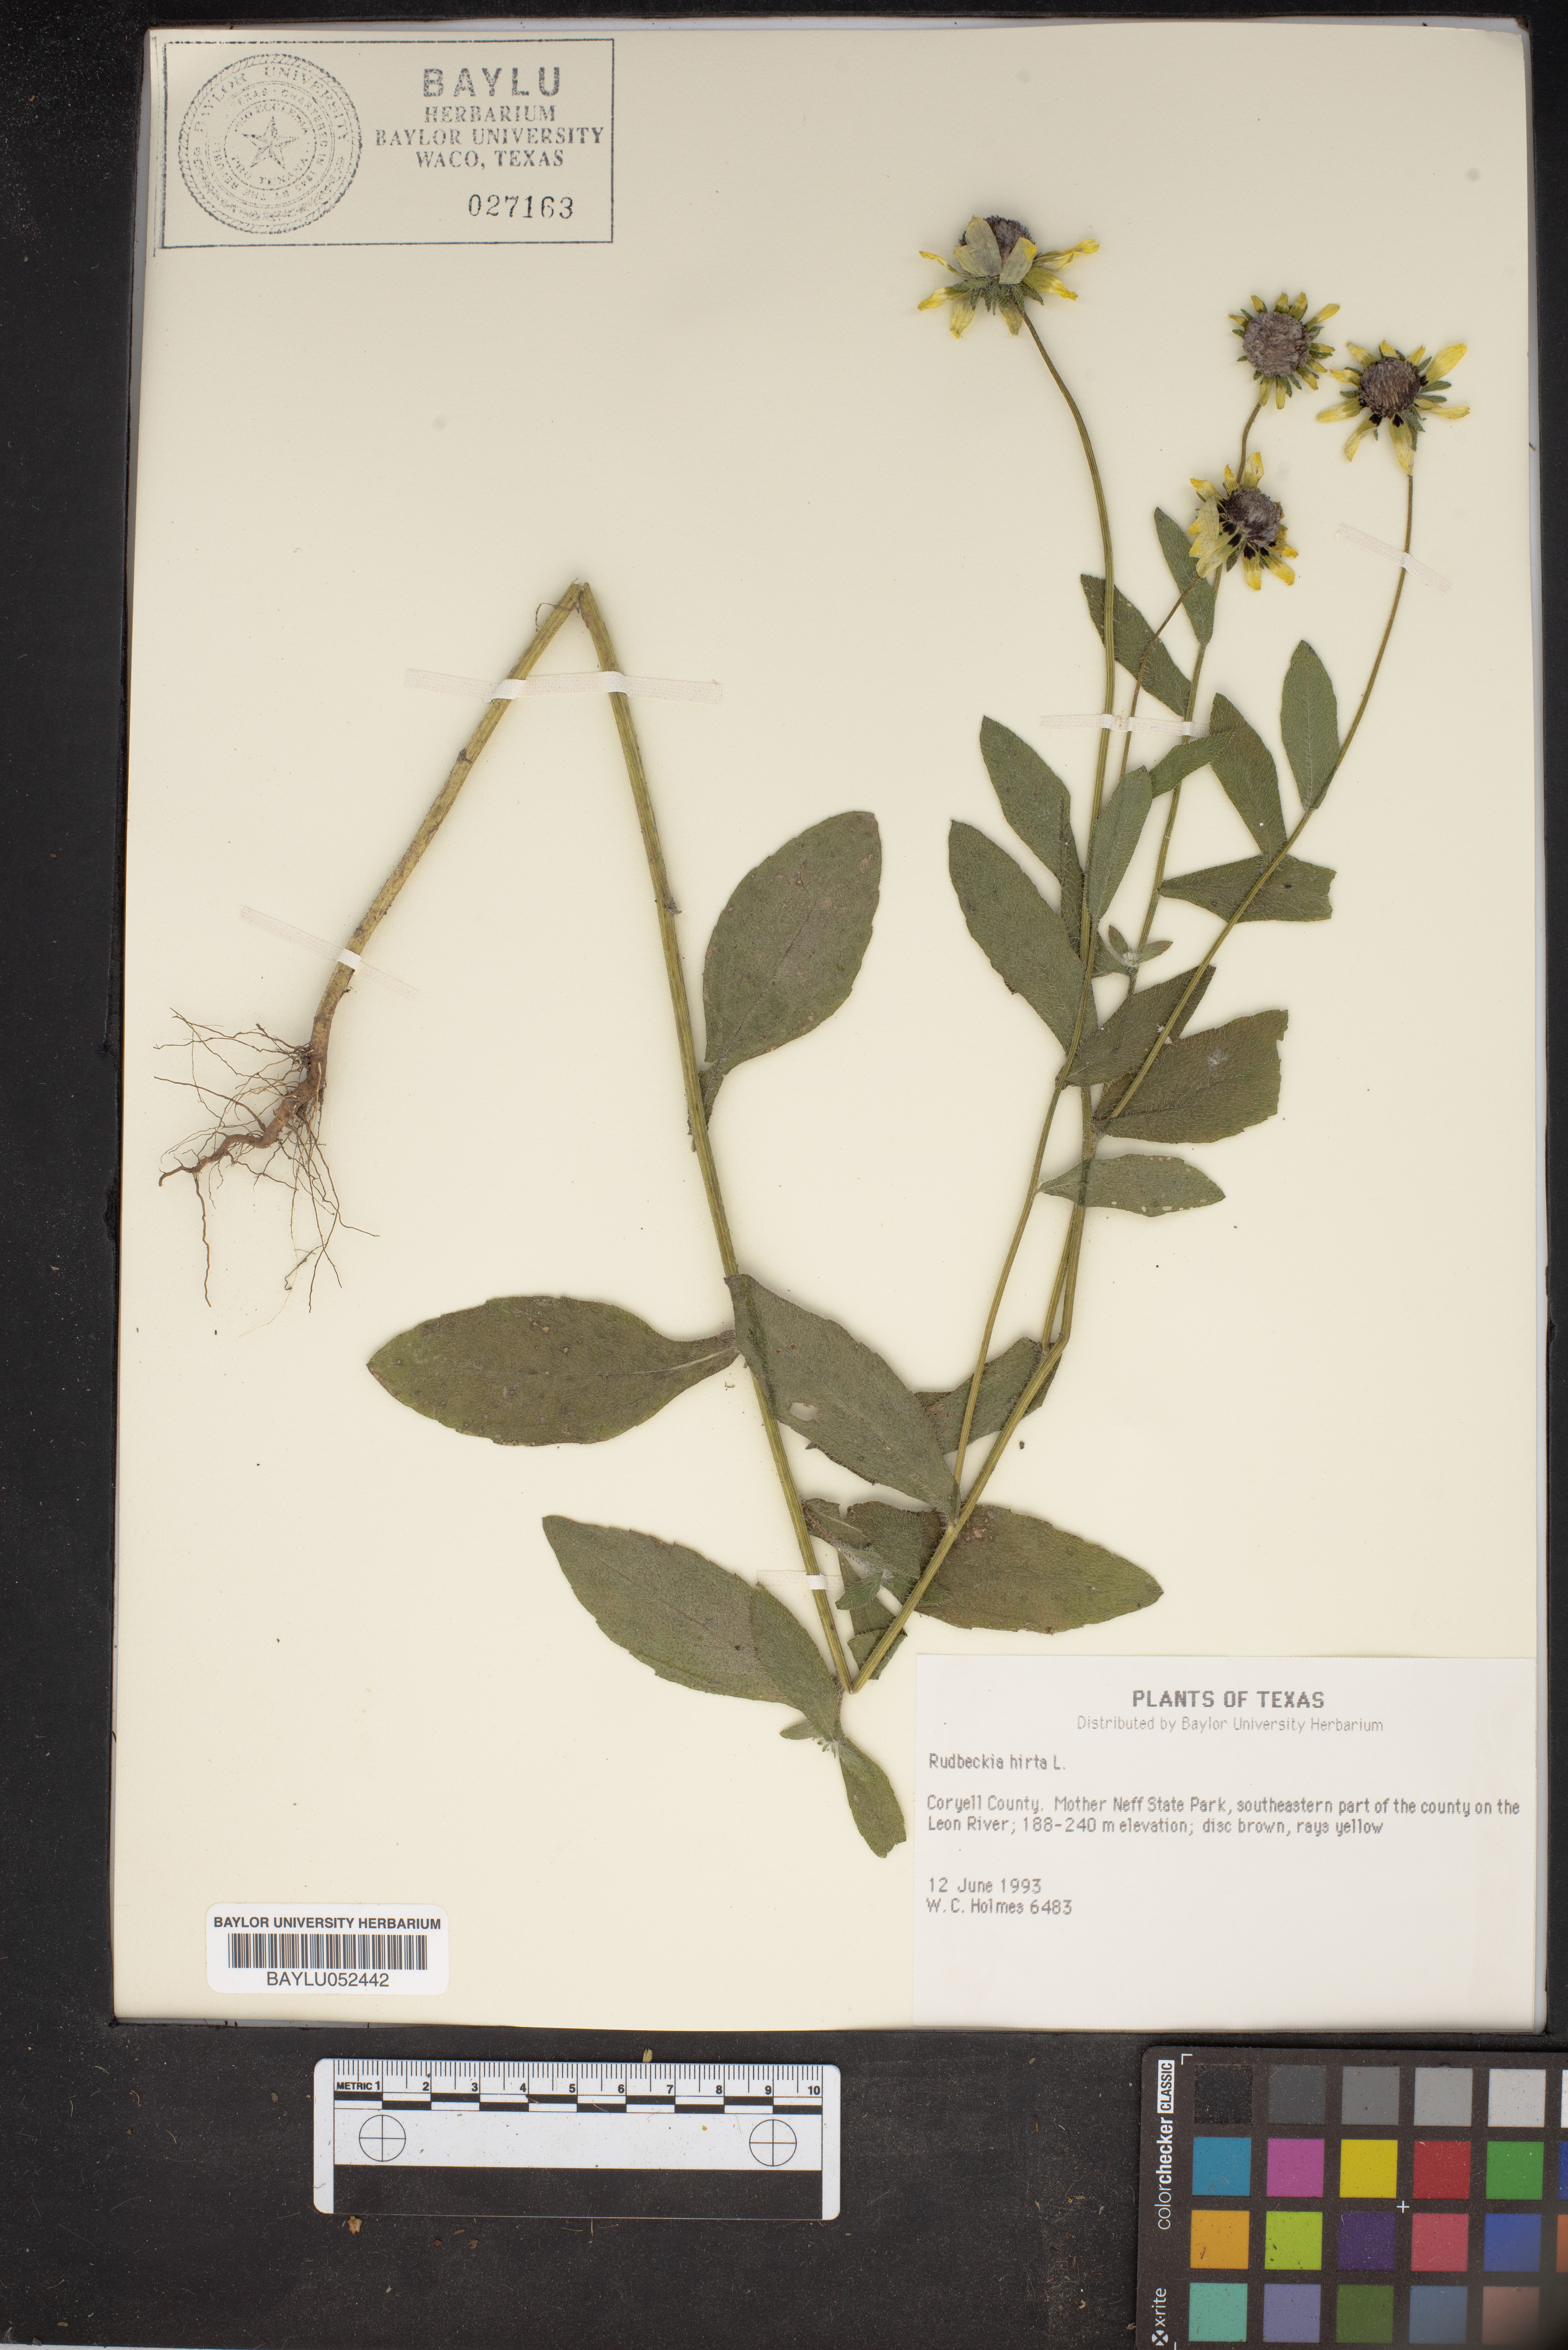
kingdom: Plantae
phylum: Tracheophyta
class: Magnoliopsida
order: Asterales
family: Asteraceae
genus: Rudbeckia
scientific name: Rudbeckia hirta
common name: Black-eyed-susan
